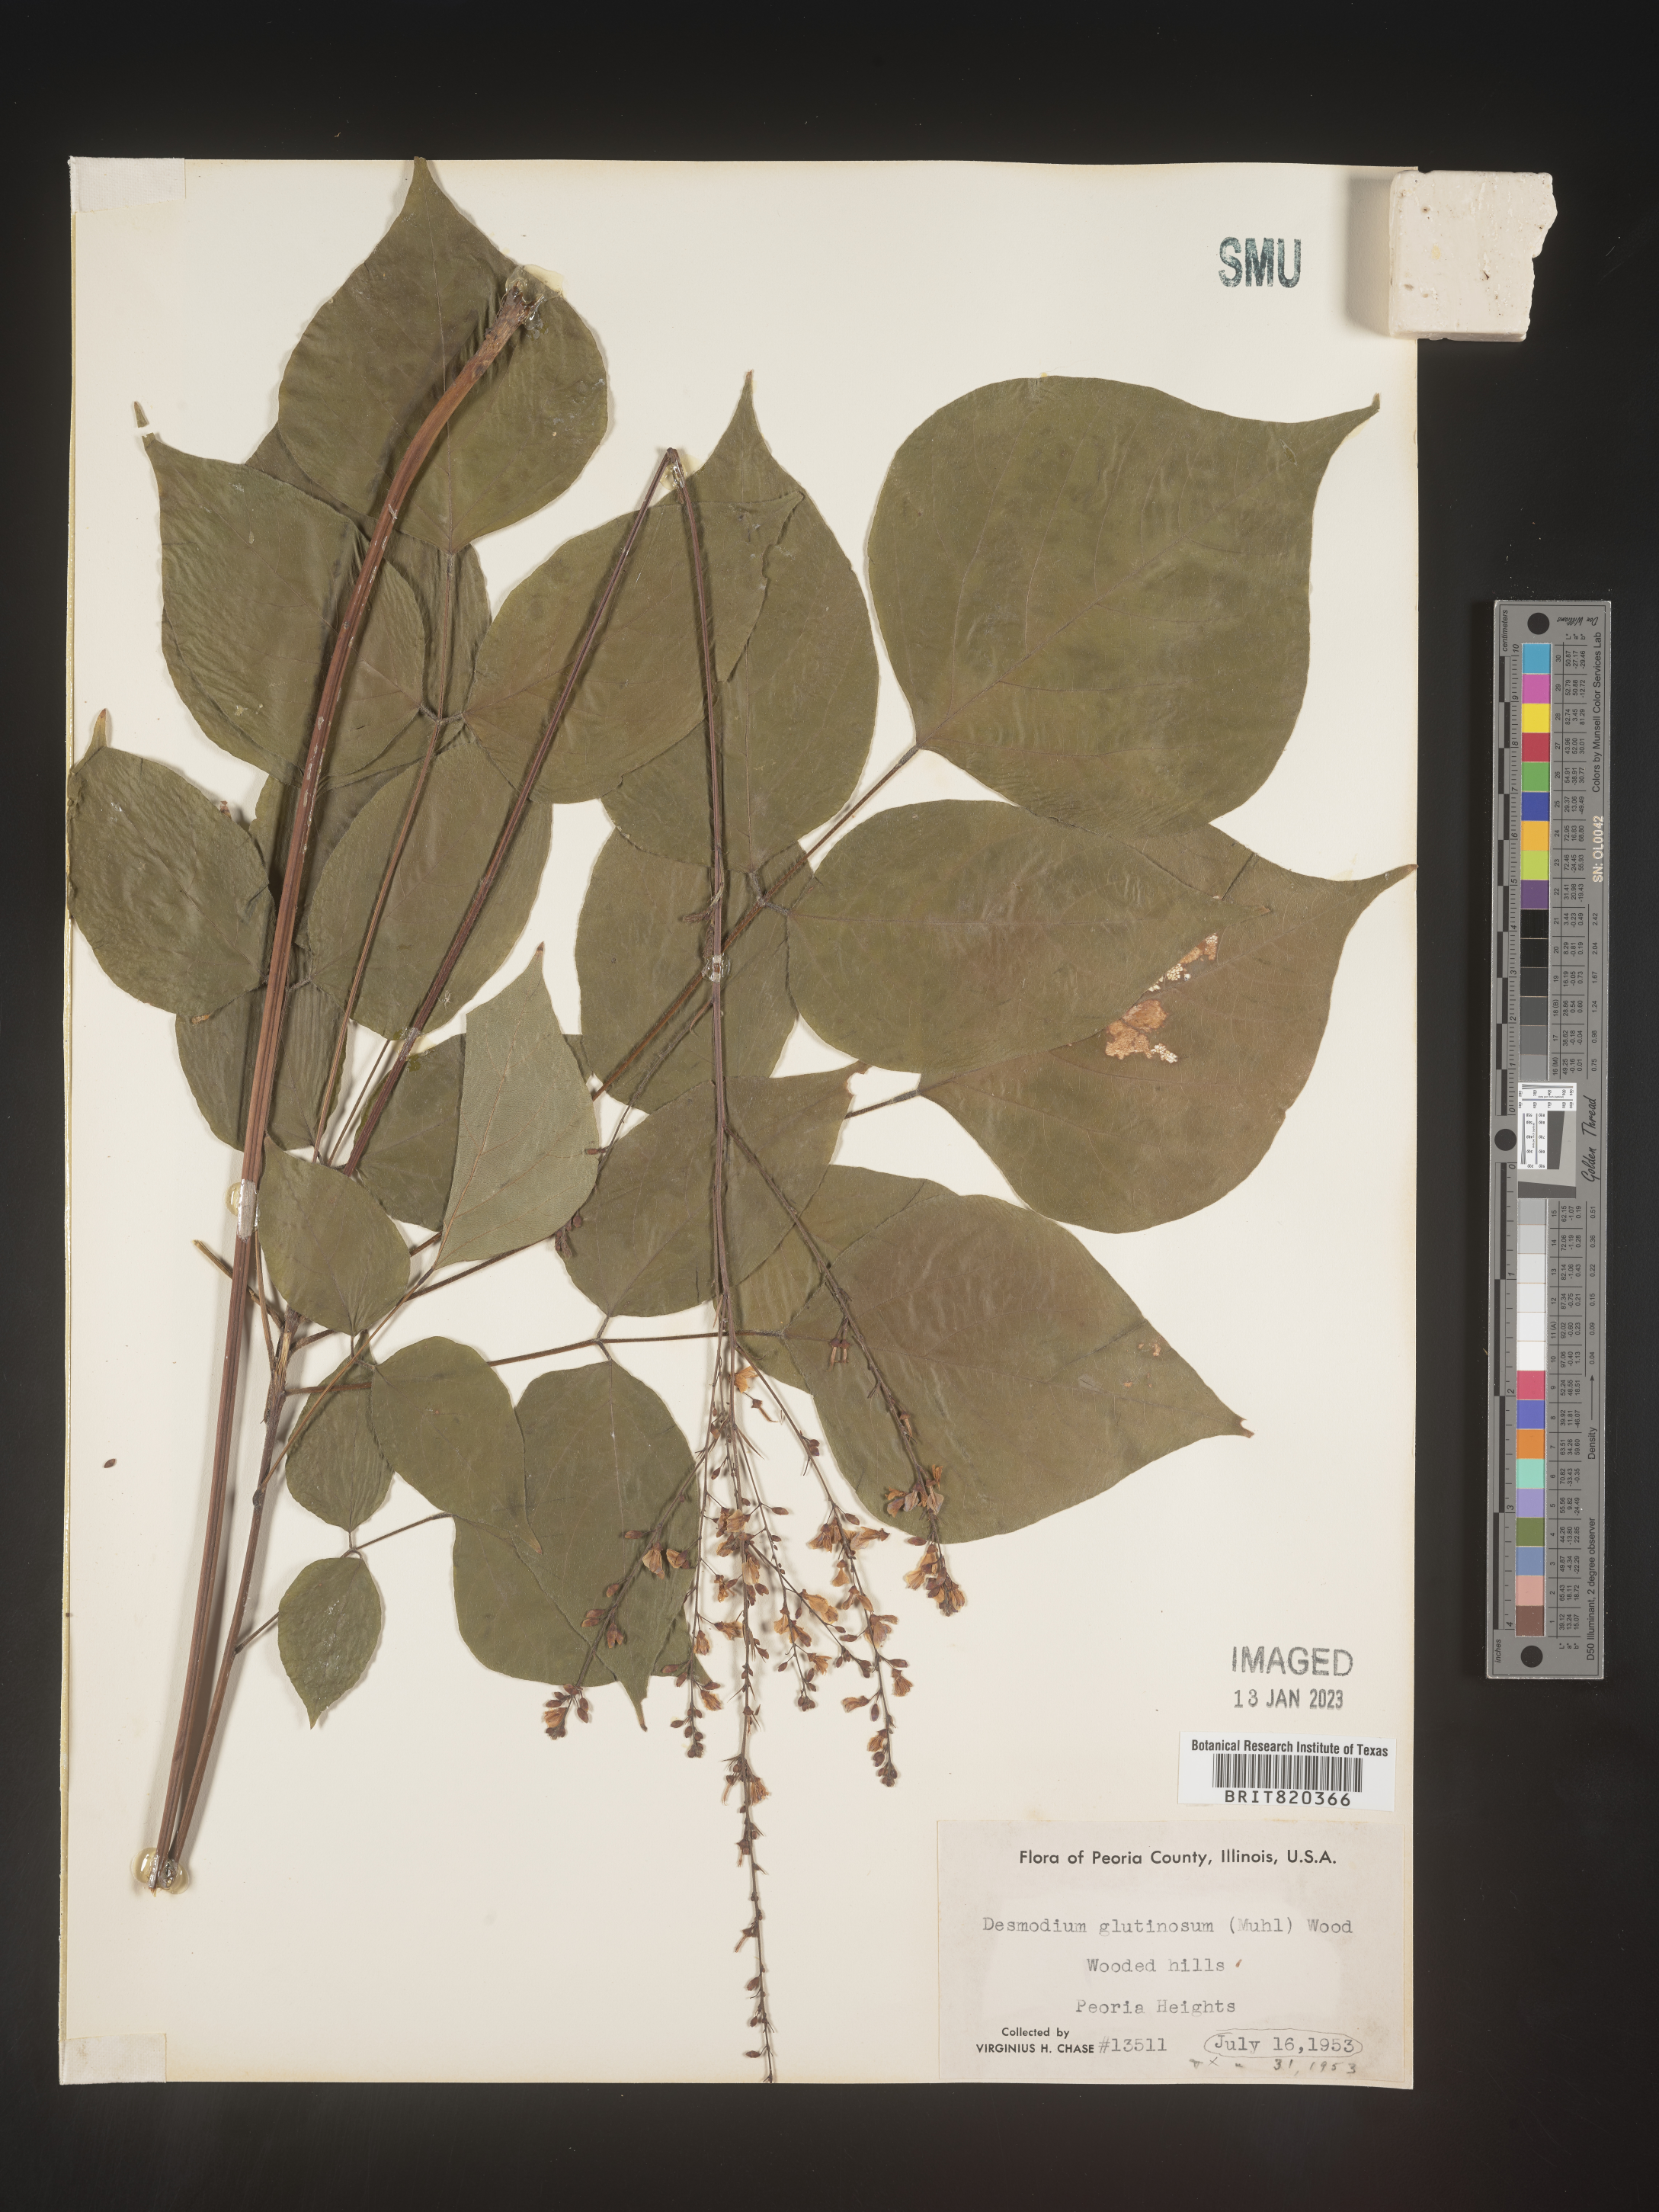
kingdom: Plantae
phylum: Tracheophyta
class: Magnoliopsida
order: Fabales
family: Fabaceae
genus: Hylodesmum
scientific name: Hylodesmum glutinosum
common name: Clustered-leaved tick-trefoil
